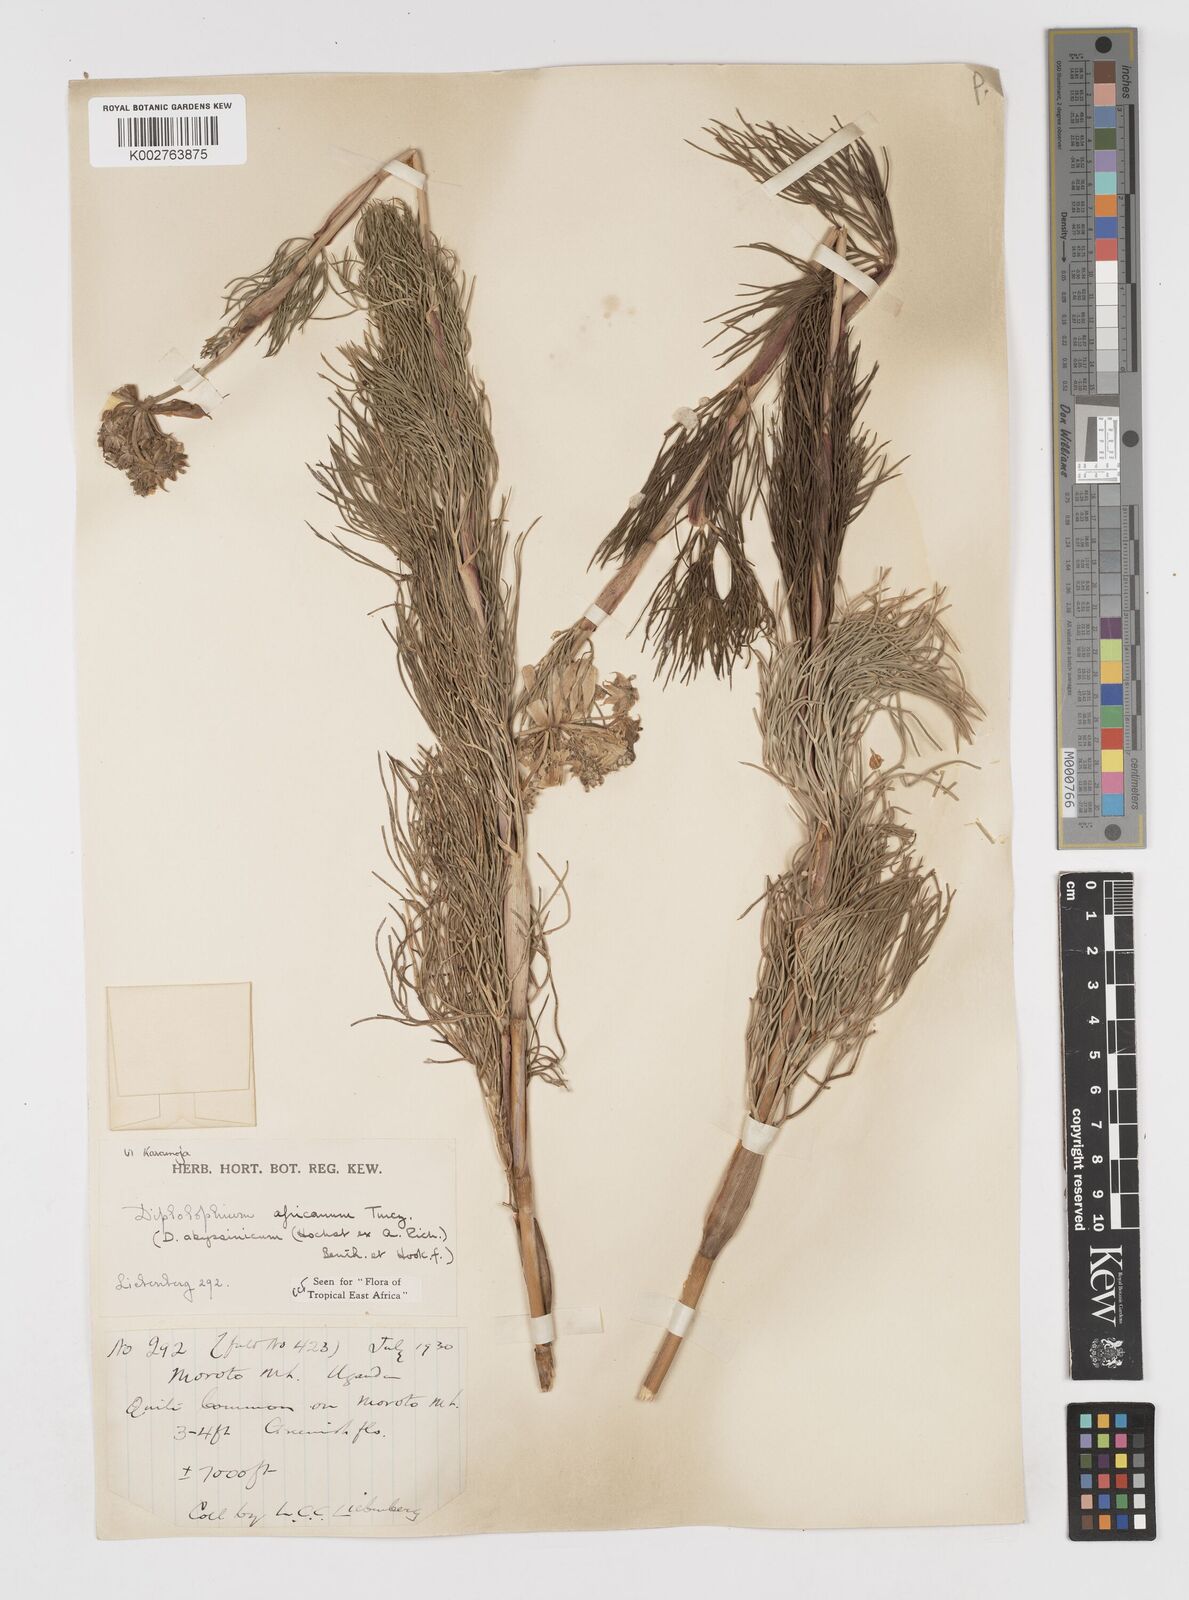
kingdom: Plantae
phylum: Tracheophyta
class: Magnoliopsida
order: Apiales
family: Apiaceae
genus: Diplolophium
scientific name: Diplolophium africanum
